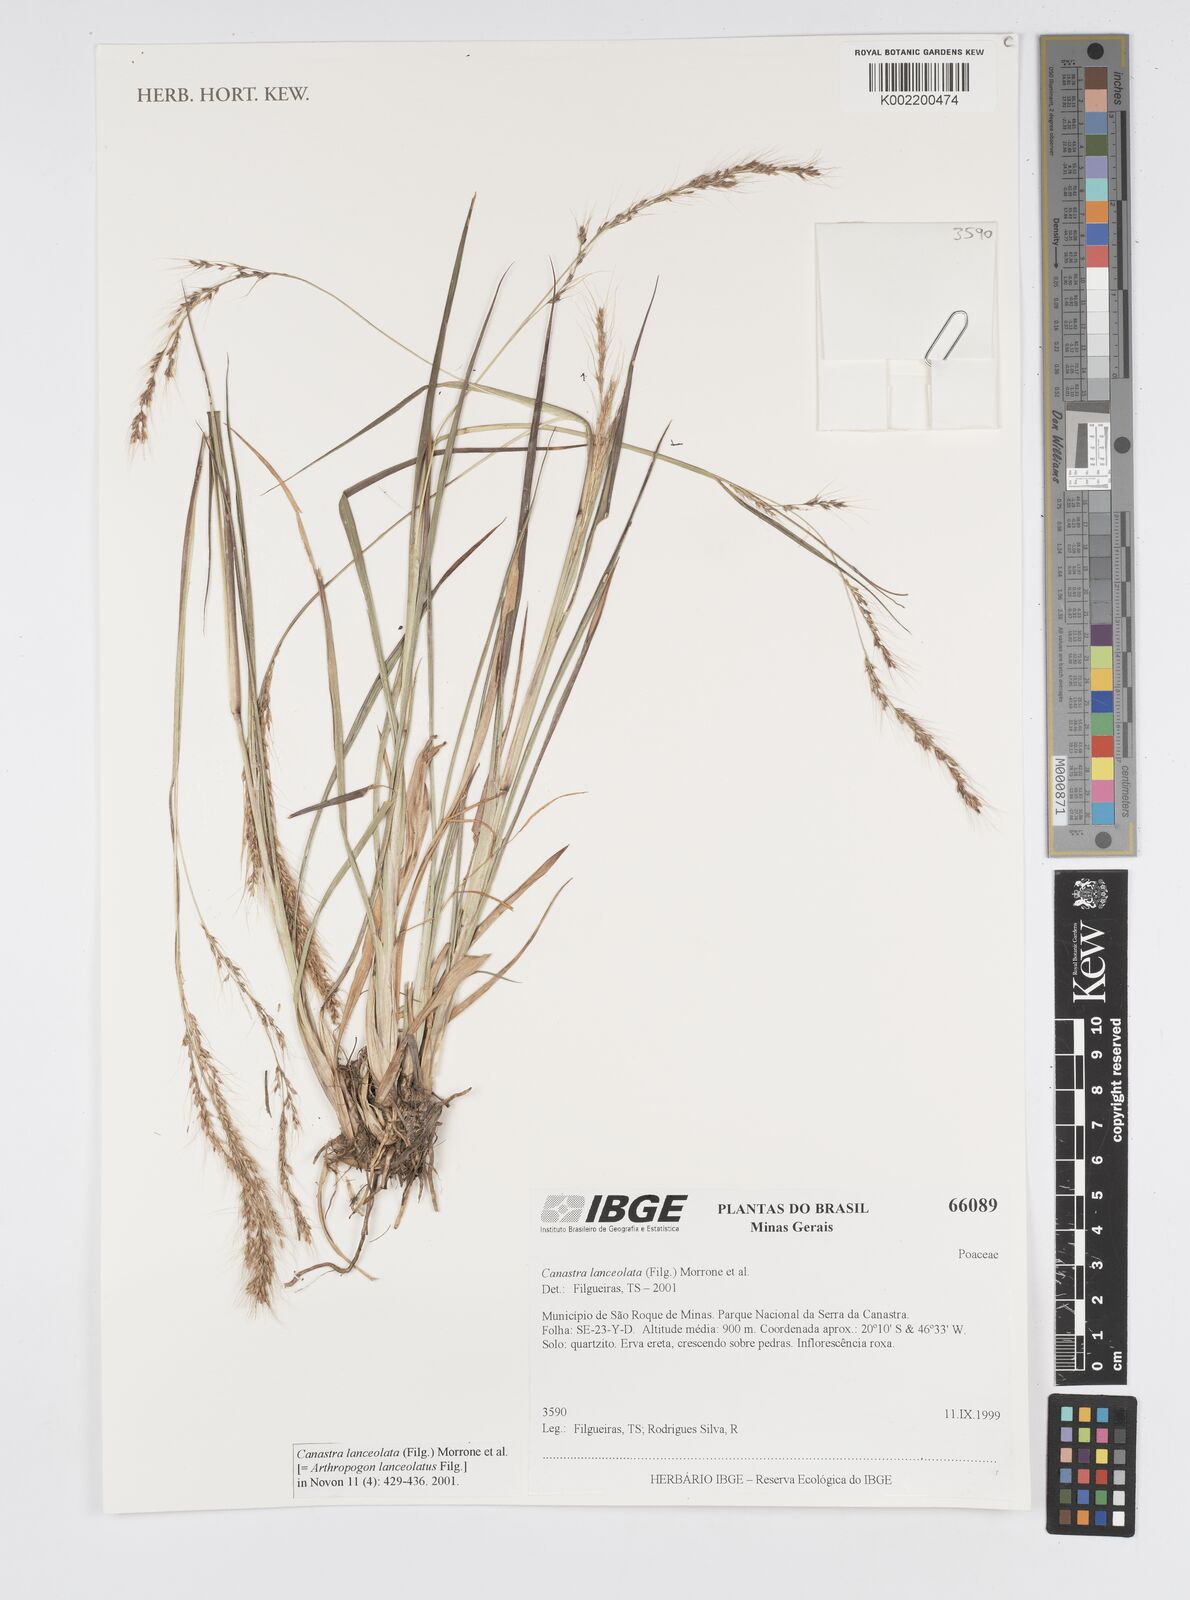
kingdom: Plantae
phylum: Tracheophyta
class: Liliopsida
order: Poales
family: Poaceae
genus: Canastra
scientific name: Canastra lanceolata
